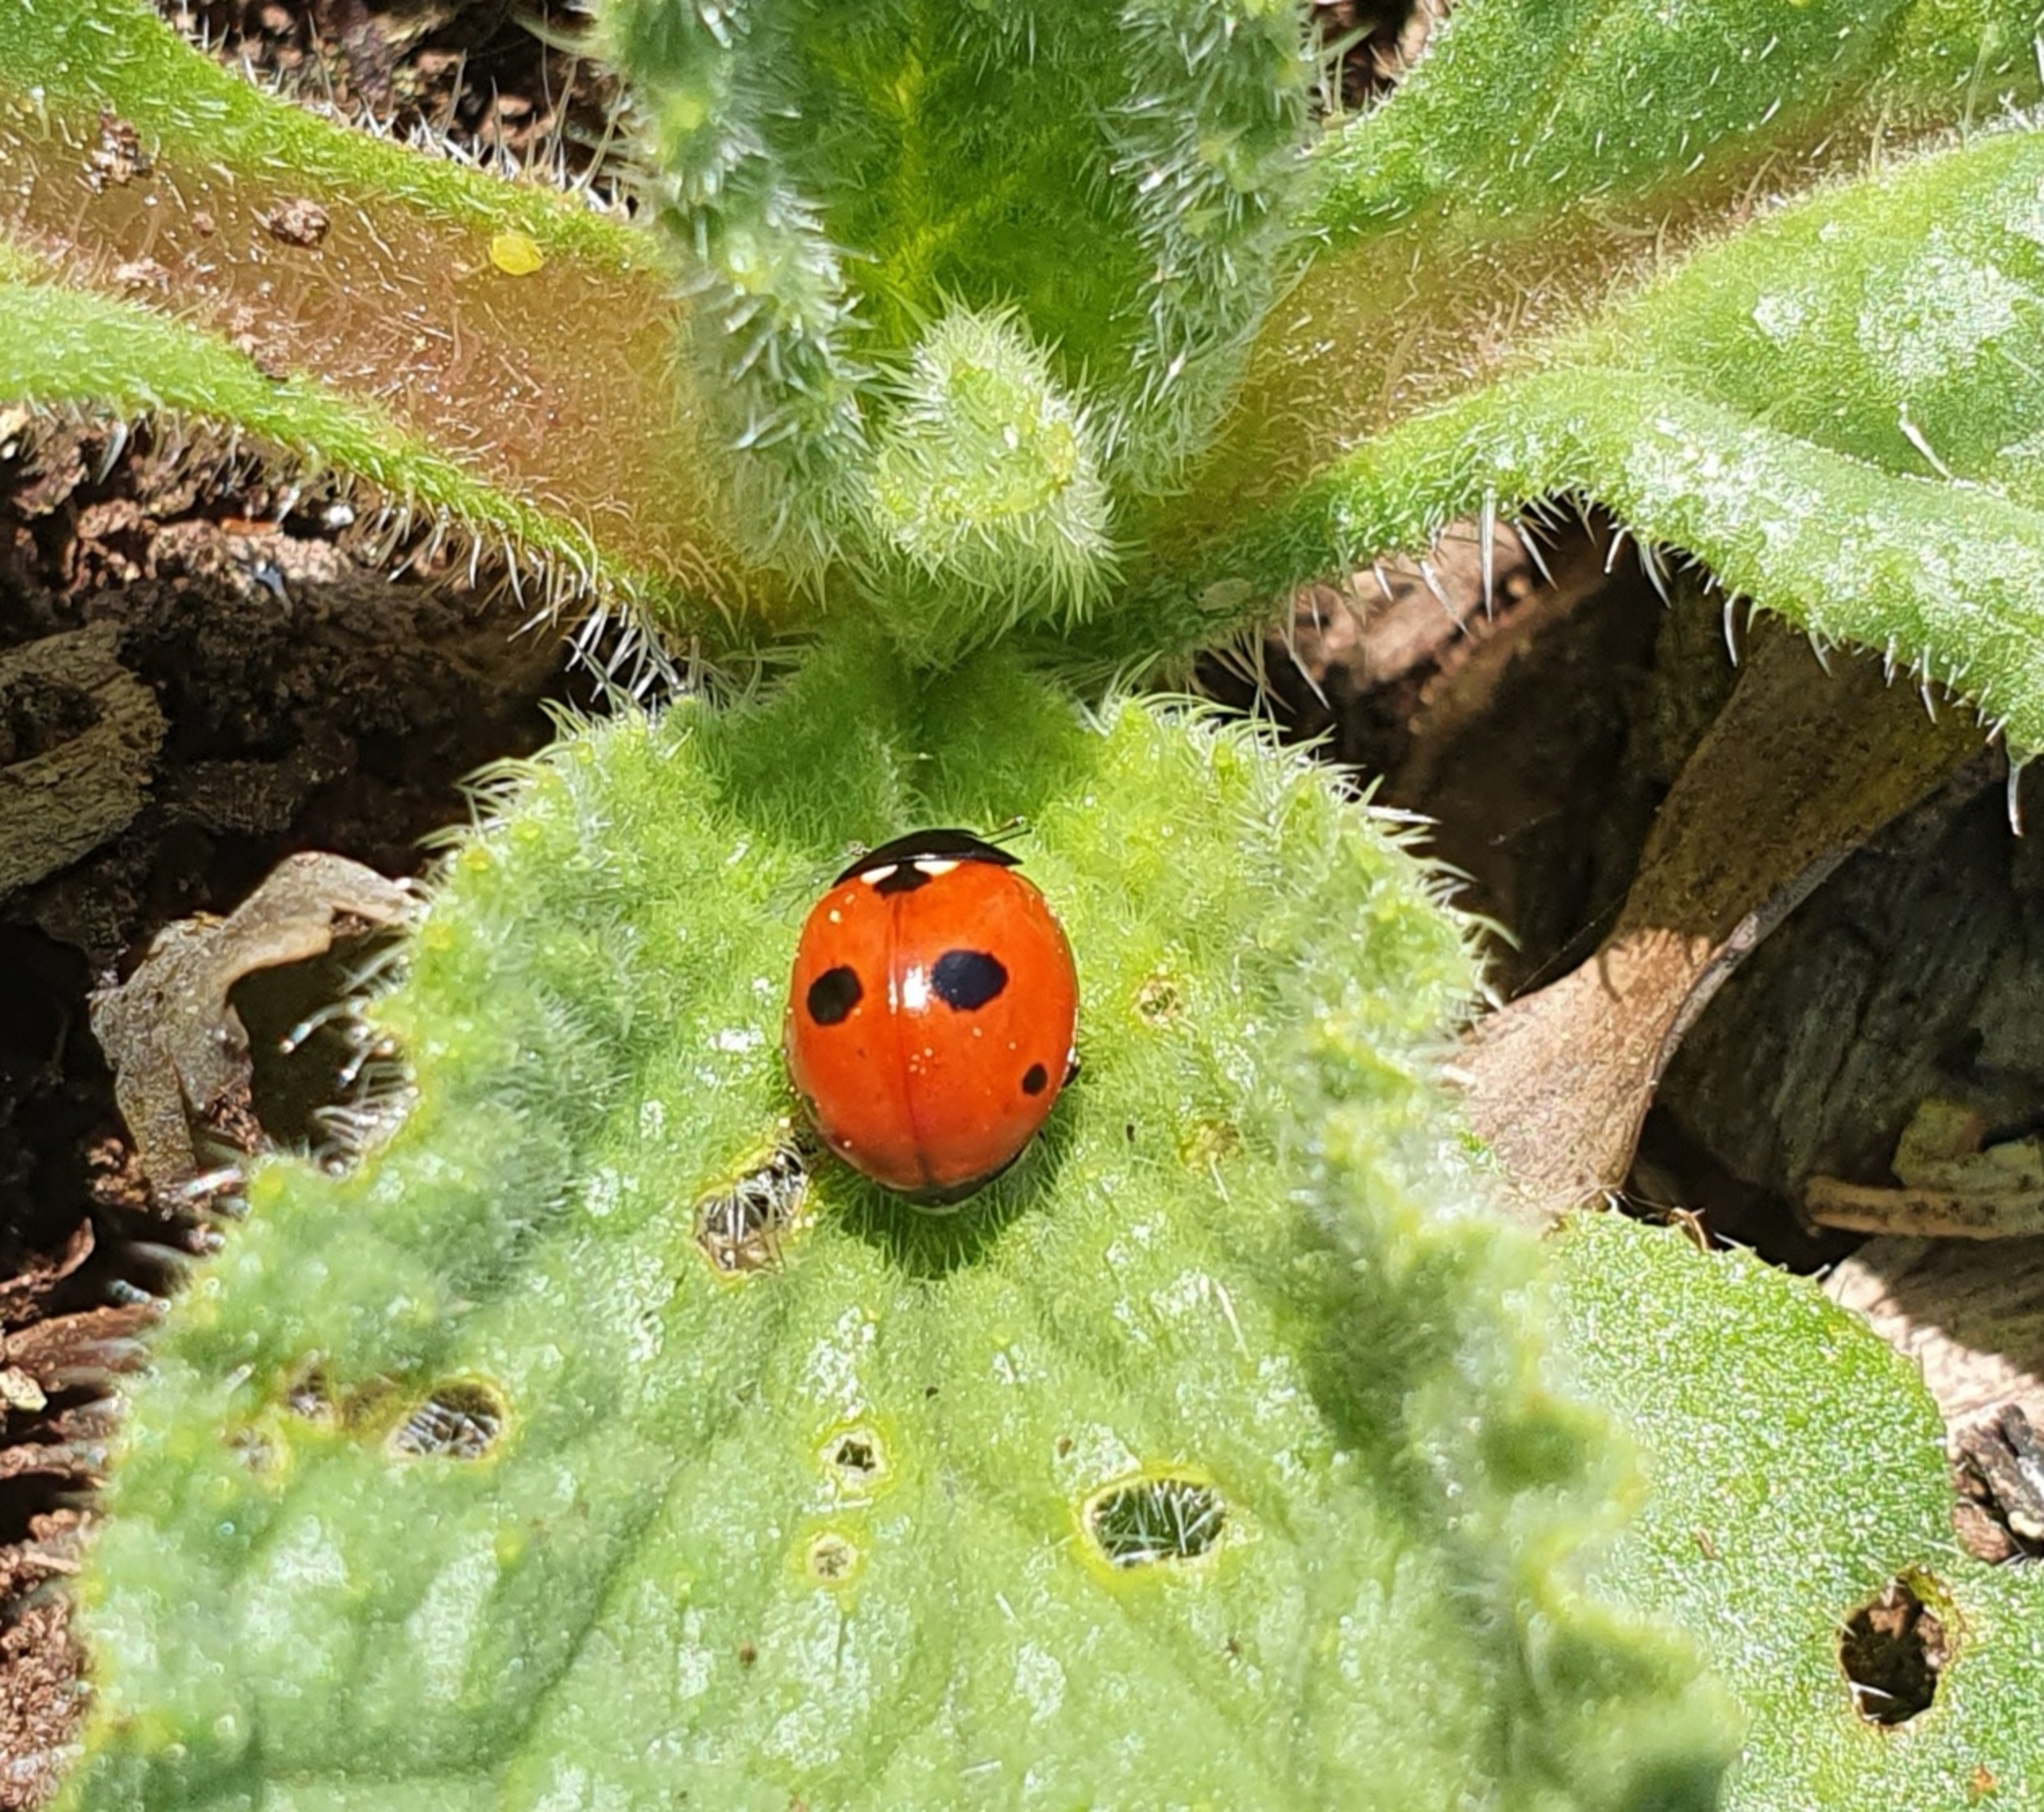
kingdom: Animalia
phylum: Arthropoda
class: Insecta
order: Coleoptera
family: Coccinellidae
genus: Coccinella
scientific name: Coccinella quinquepunctata
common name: Femplettet mariehøne
